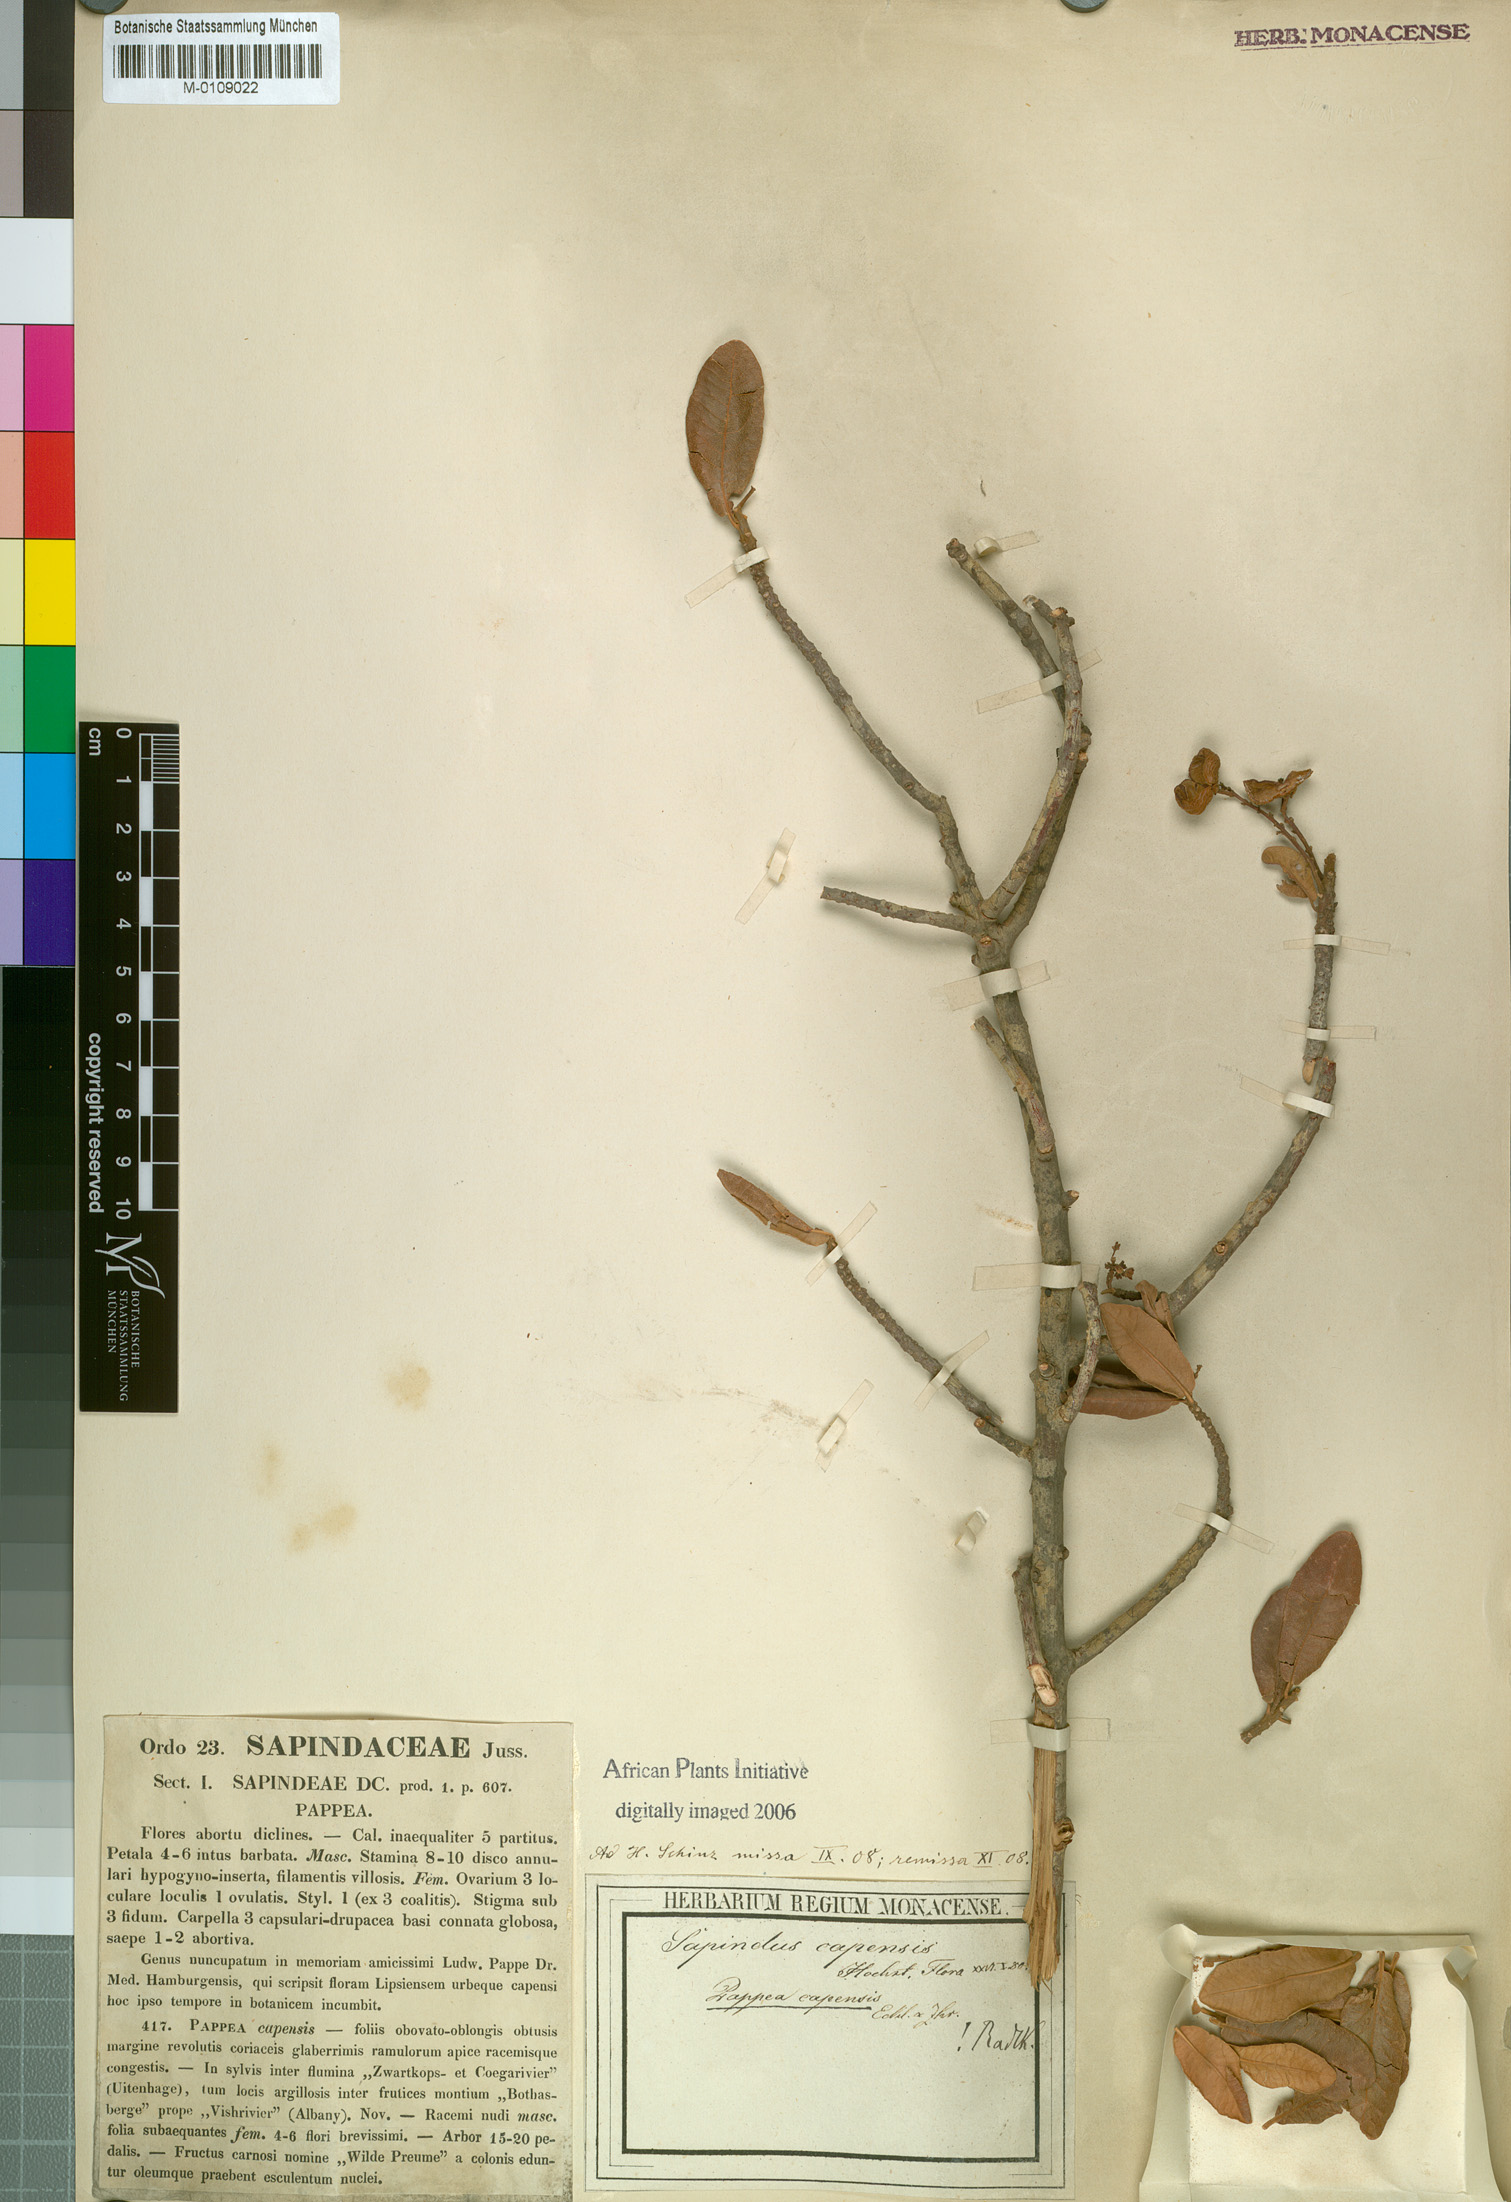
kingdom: Plantae
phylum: Tracheophyta
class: Magnoliopsida
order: Sapindales
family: Sapindaceae
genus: Pappea
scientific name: Pappea capensis
